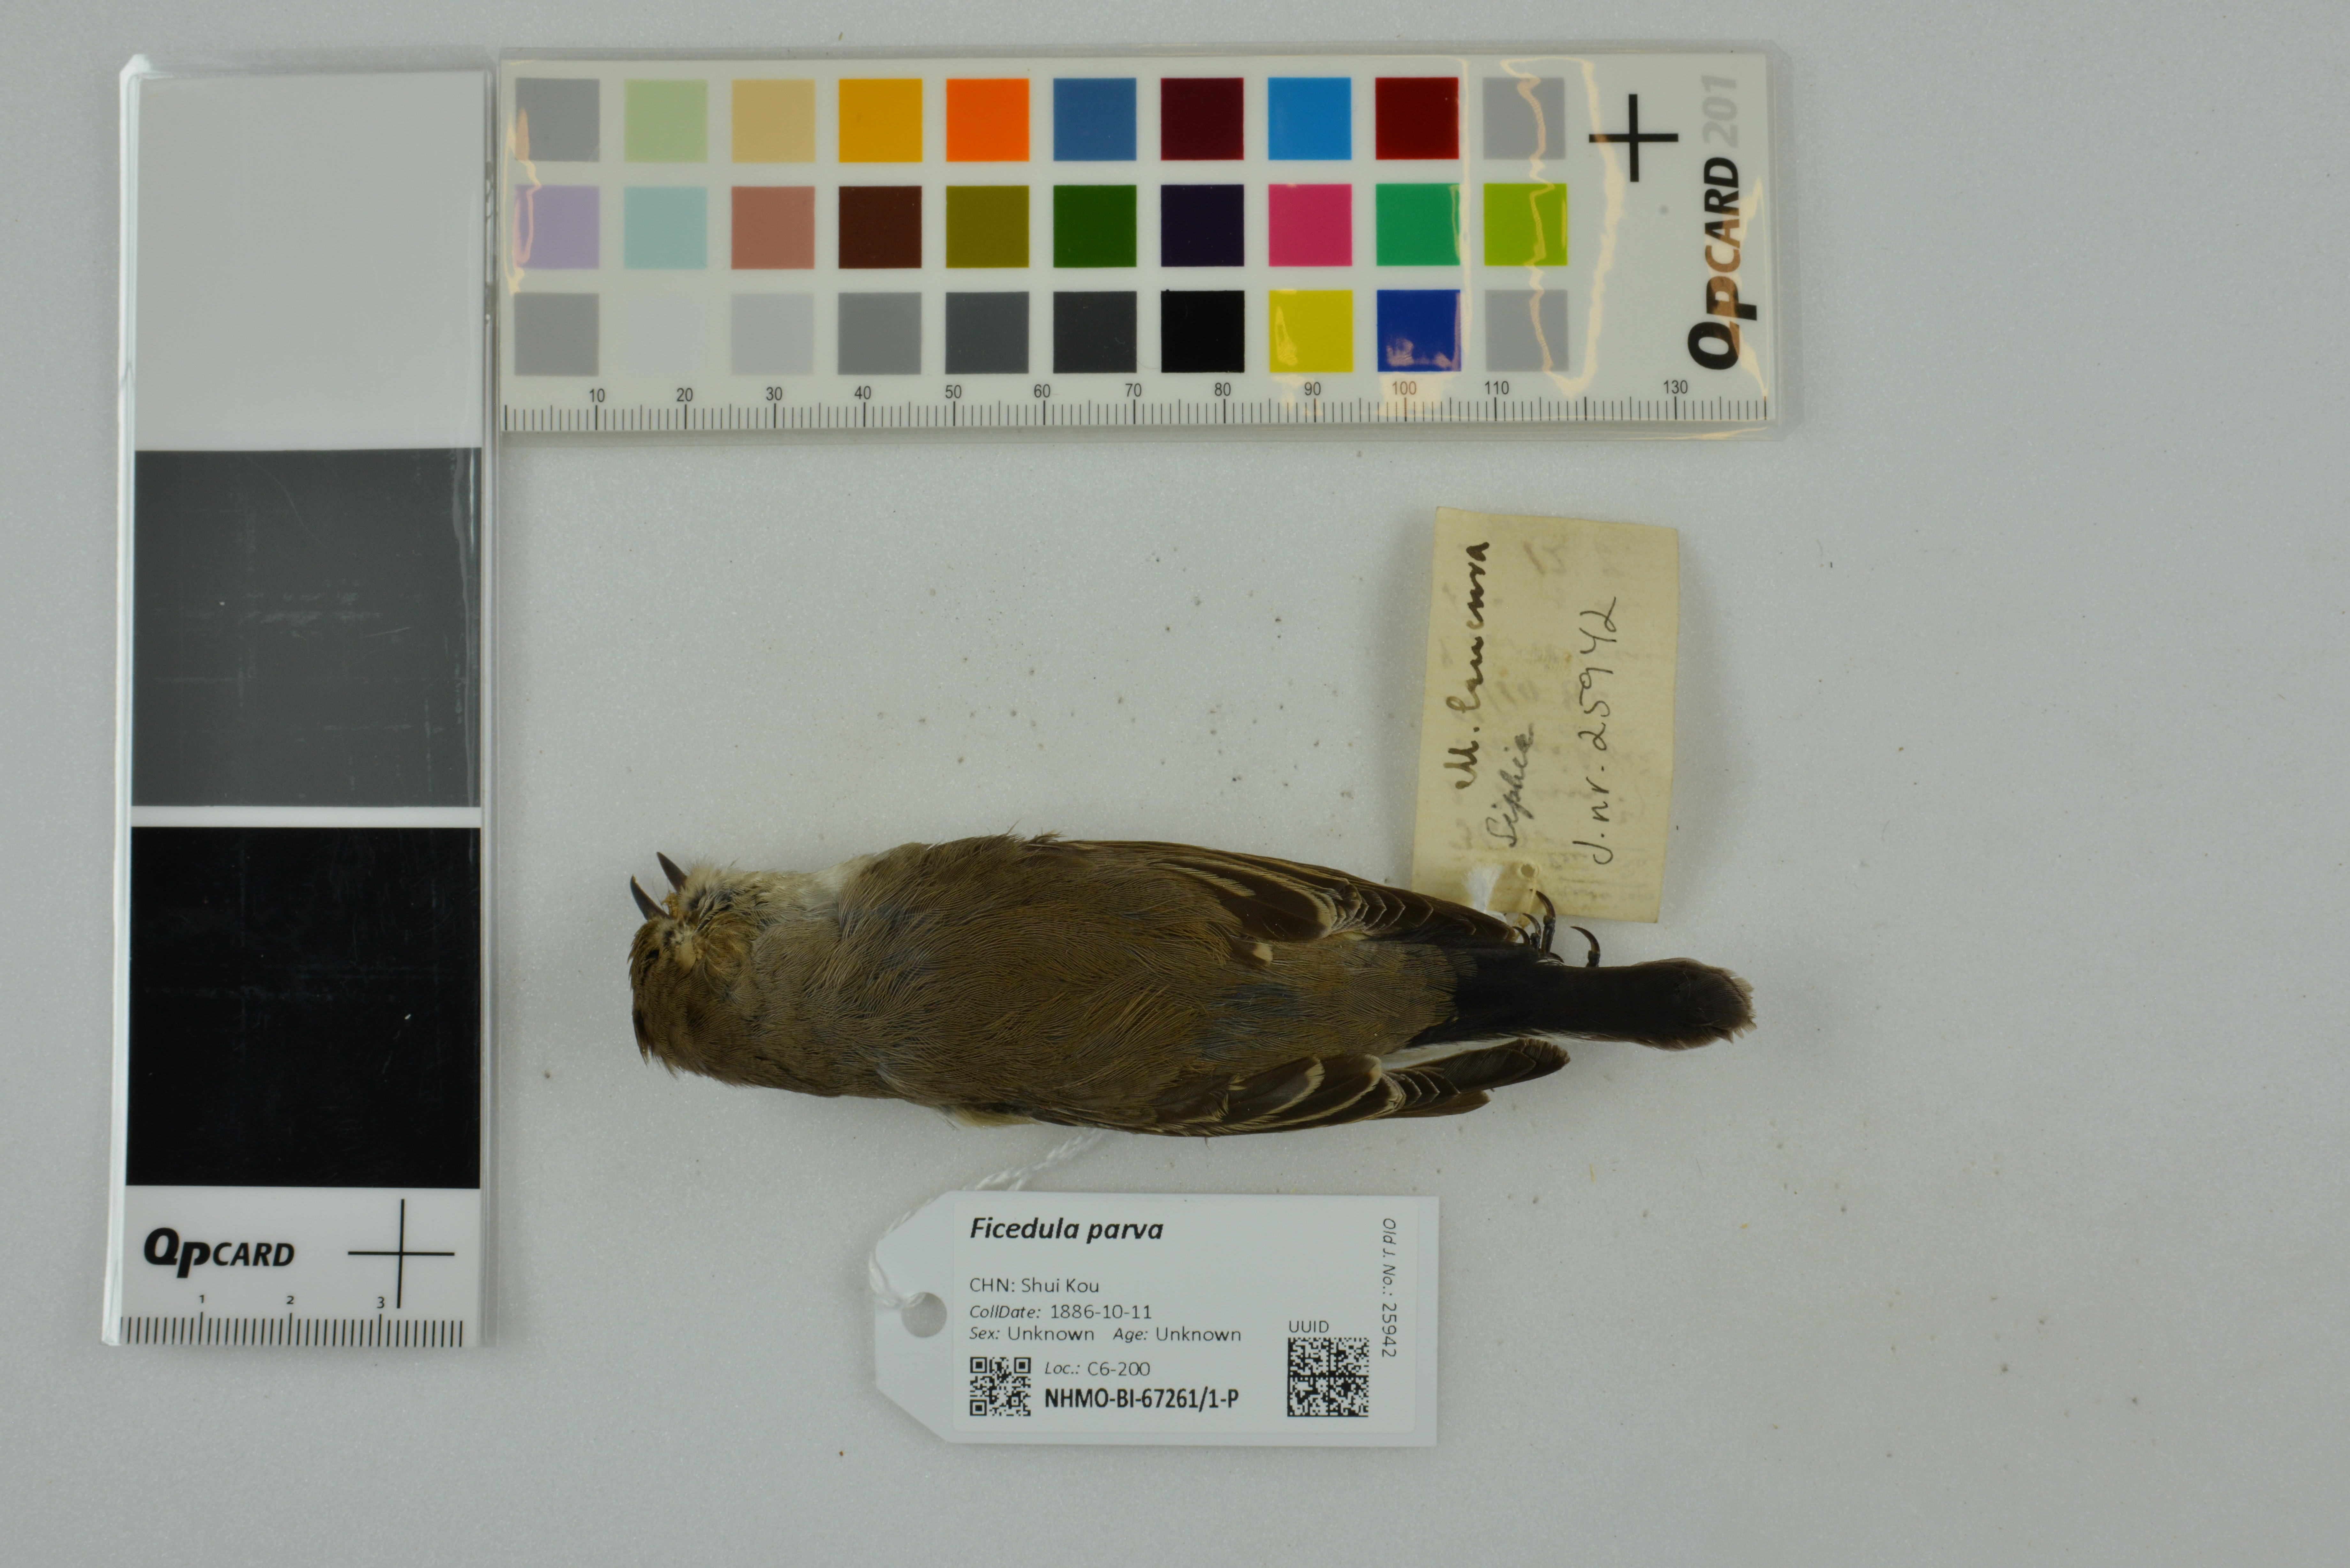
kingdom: Animalia
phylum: Chordata
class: Aves
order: Passeriformes
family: Muscicapidae
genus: Ficedula
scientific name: Ficedula parva
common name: Red-breasted flycatcher
